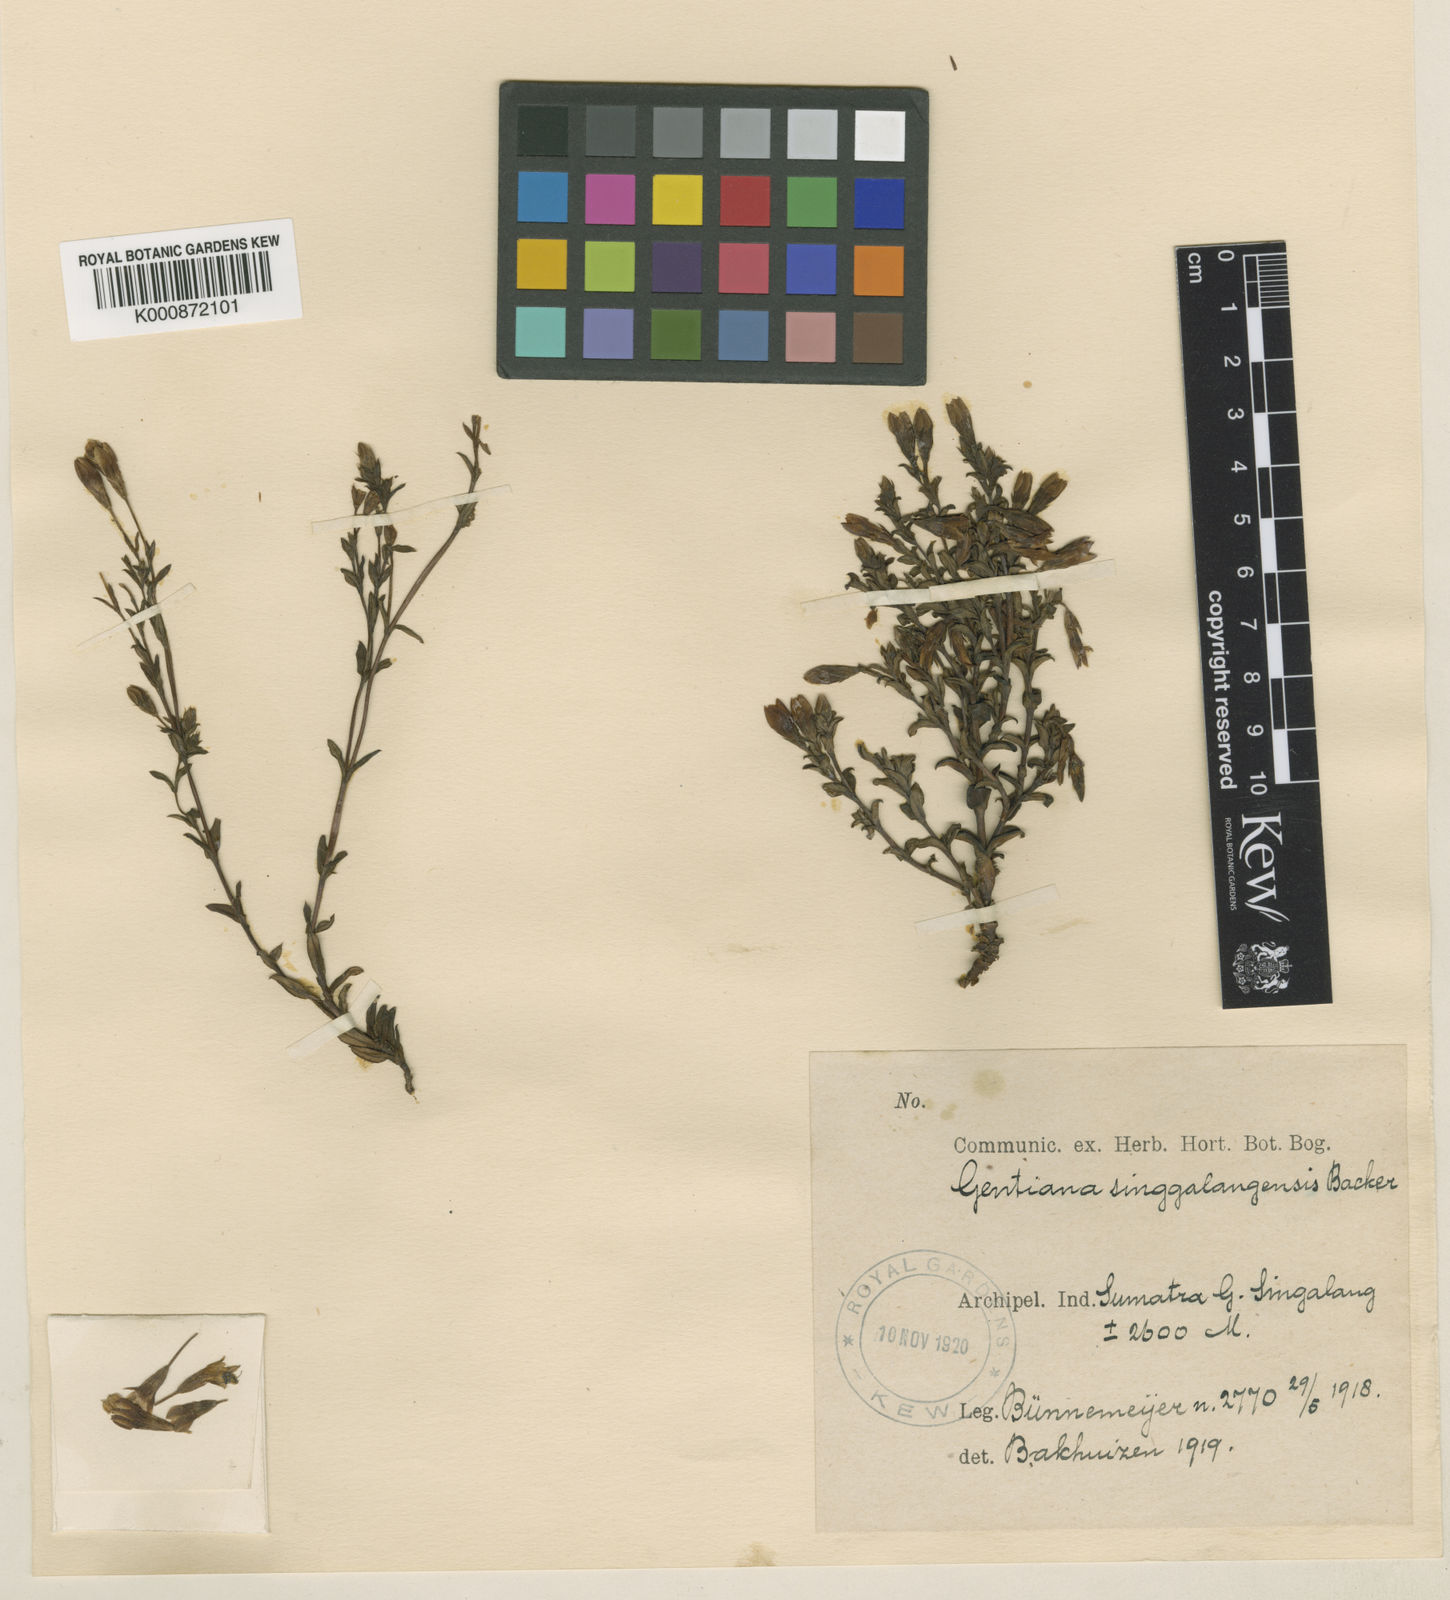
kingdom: Plantae
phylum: Tracheophyta
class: Magnoliopsida
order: Gentianales
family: Gentianaceae
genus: Gentiana
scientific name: Gentiana sumatrana
